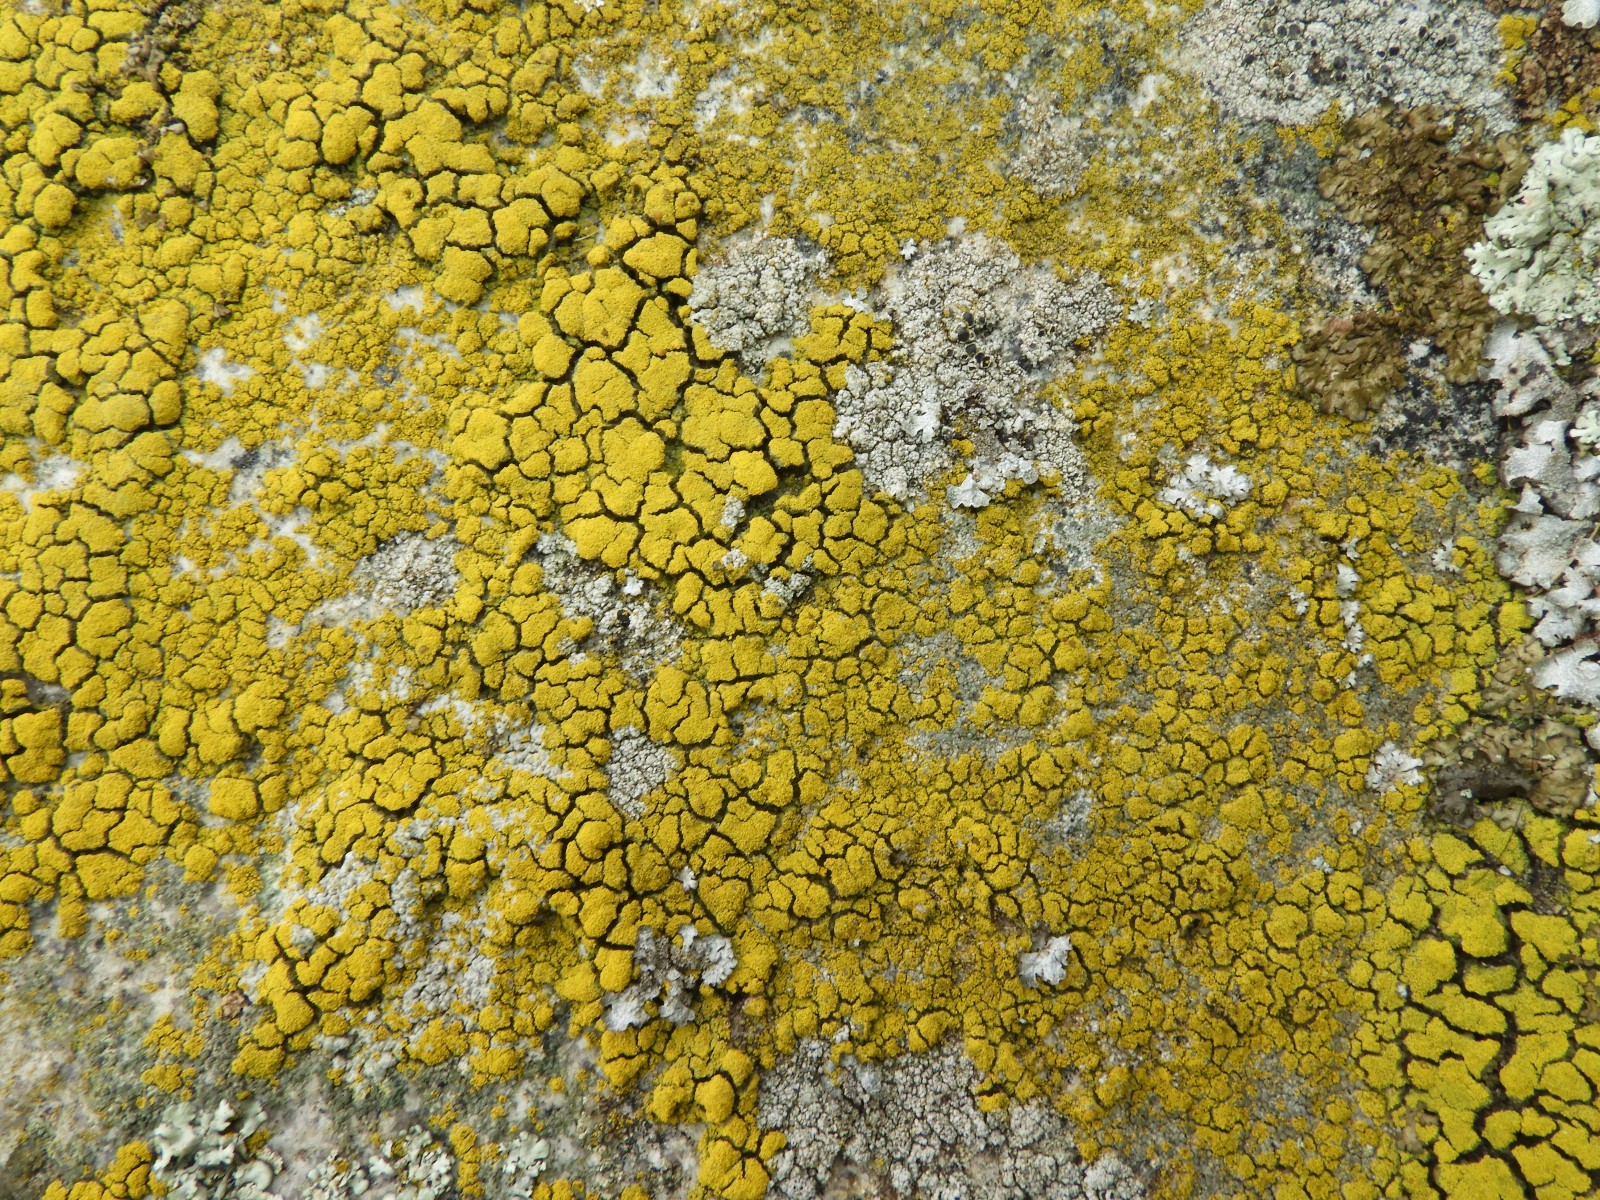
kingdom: Fungi
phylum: Ascomycota
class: Candelariomycetes
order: Candelariales
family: Candelariaceae
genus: Candelariella
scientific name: Candelariella vitellina
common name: almindelig æggeblommelav
